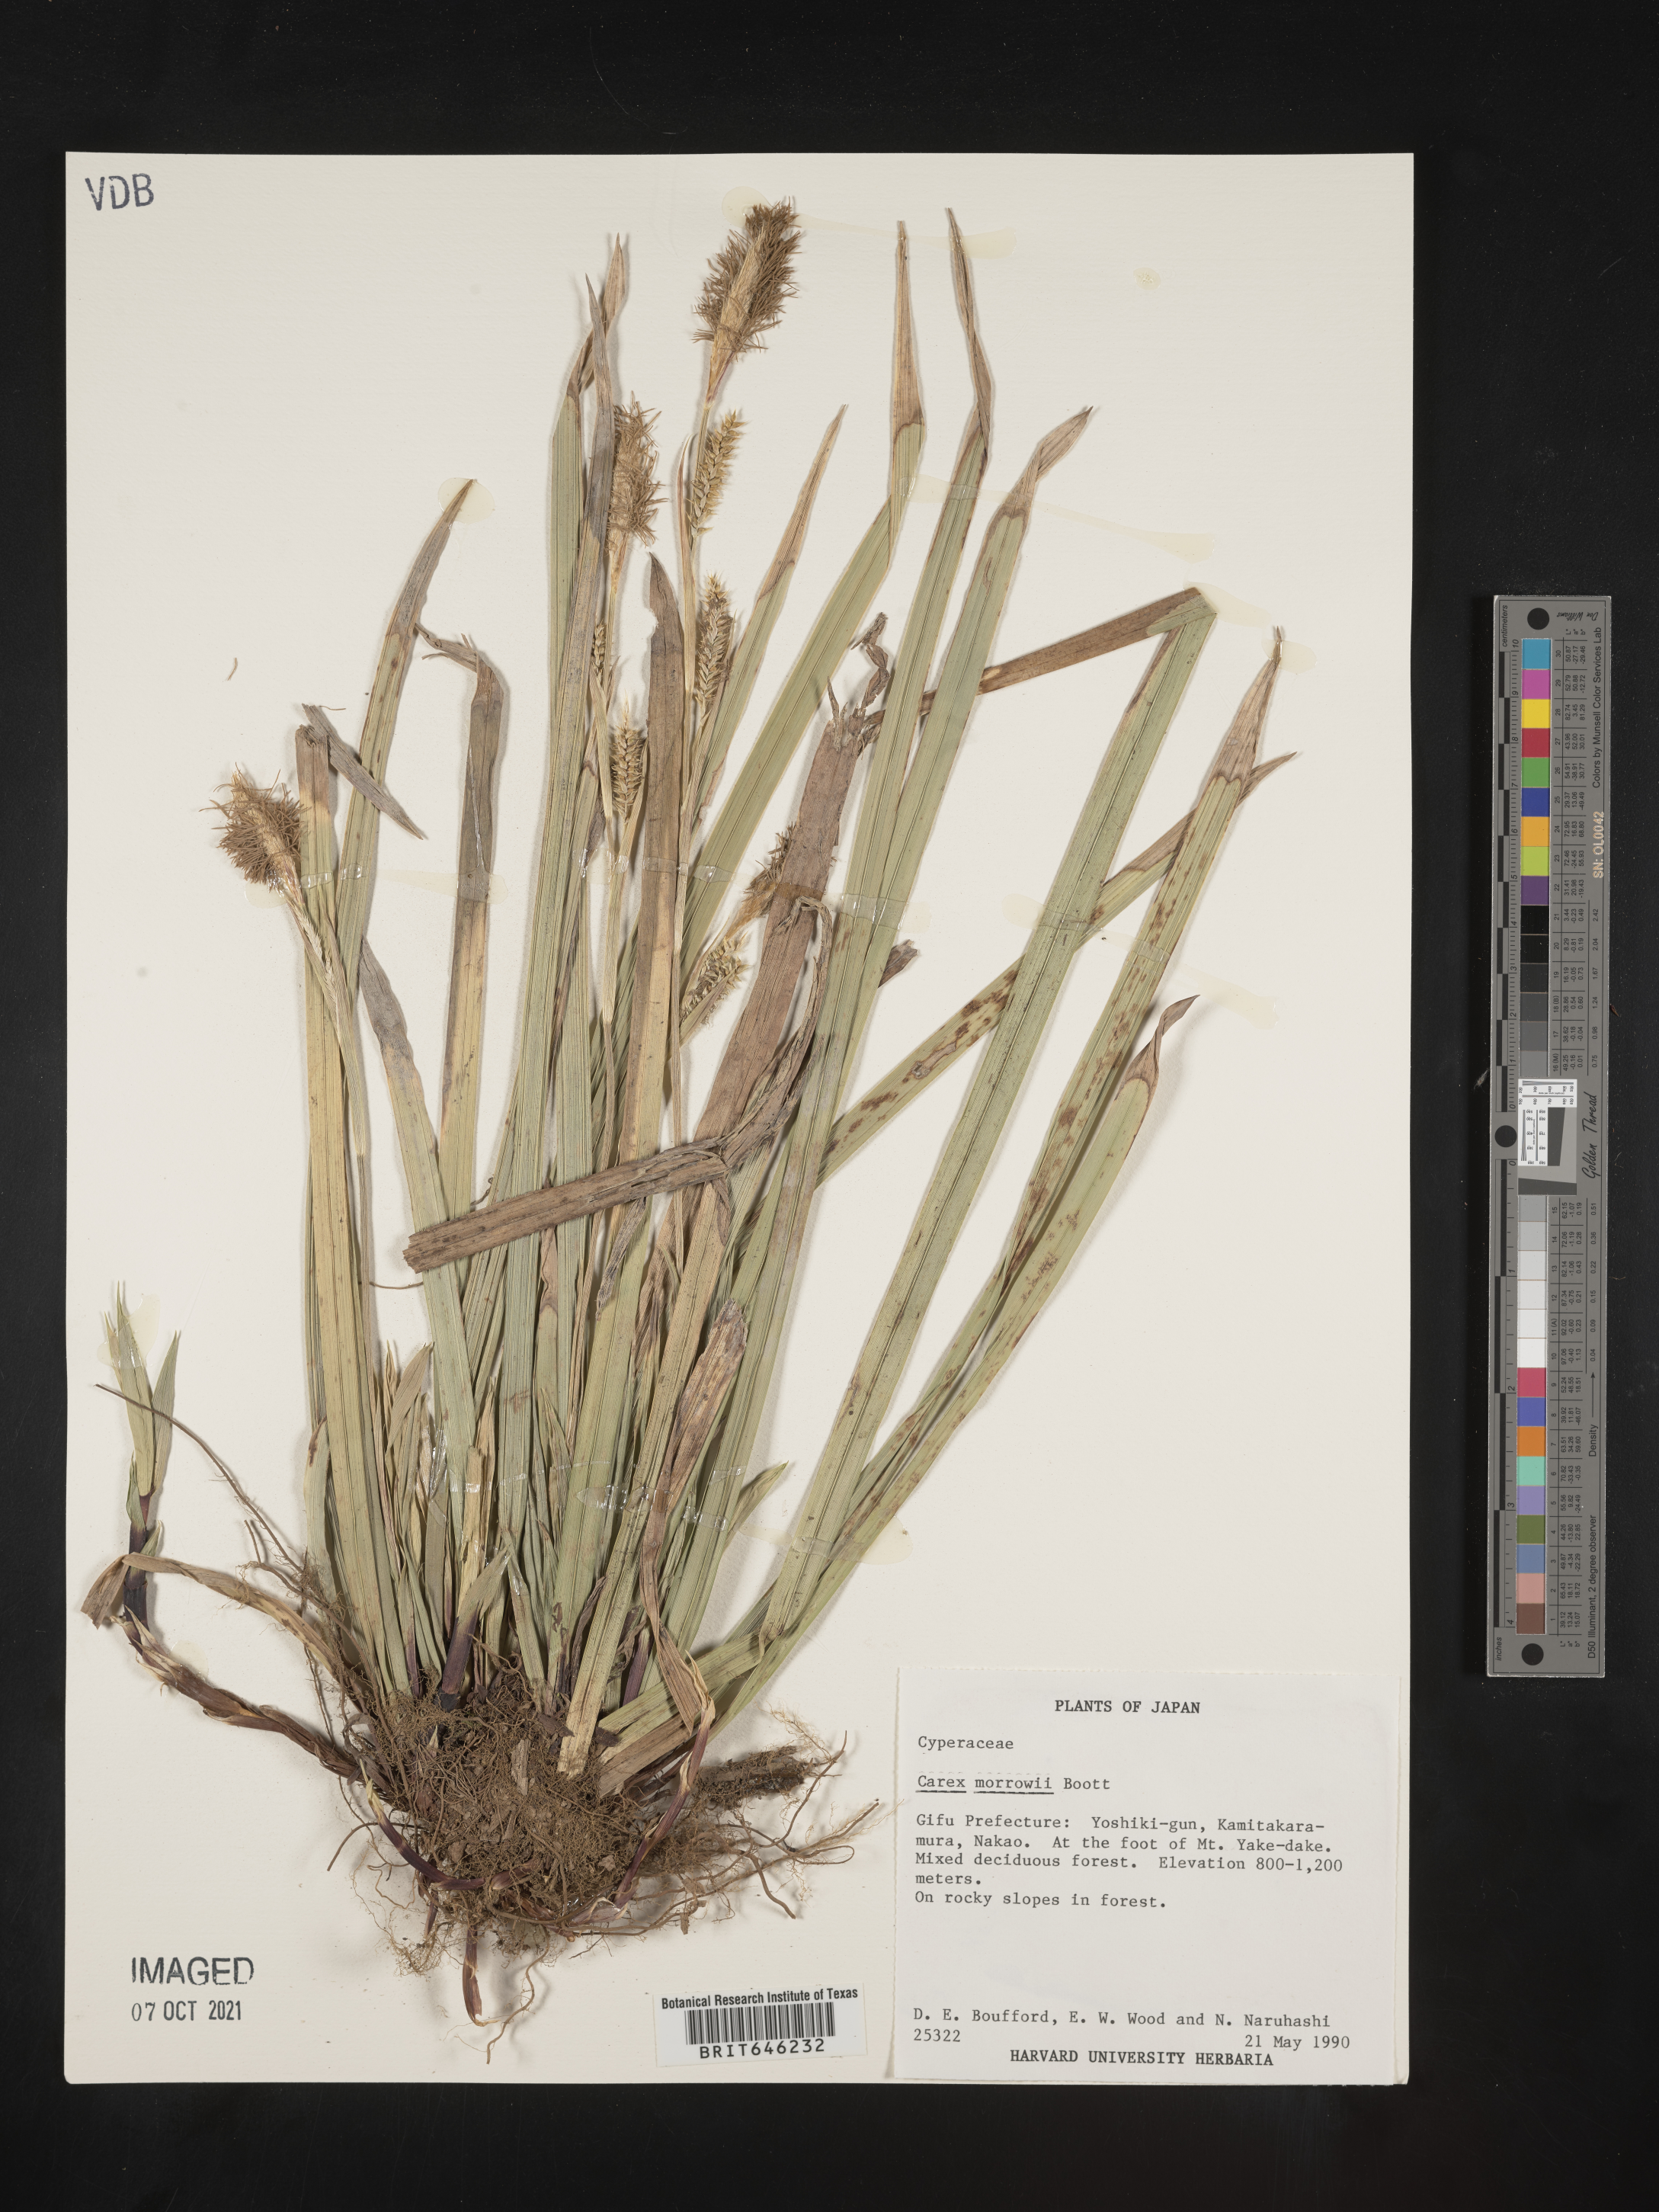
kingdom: Plantae
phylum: Tracheophyta
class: Liliopsida
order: Poales
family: Cyperaceae
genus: Carex
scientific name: Carex morrowii
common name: Japanese sedge
